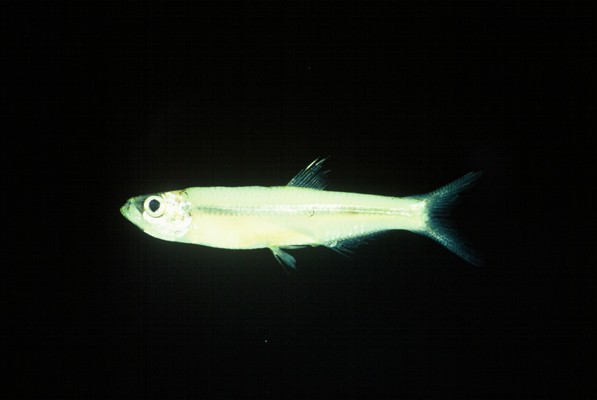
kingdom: Animalia
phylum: Chordata
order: Clupeiformes
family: Clupeidae
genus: Gilchristella
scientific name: Gilchristella aestuaria
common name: Estuarine round-herring
